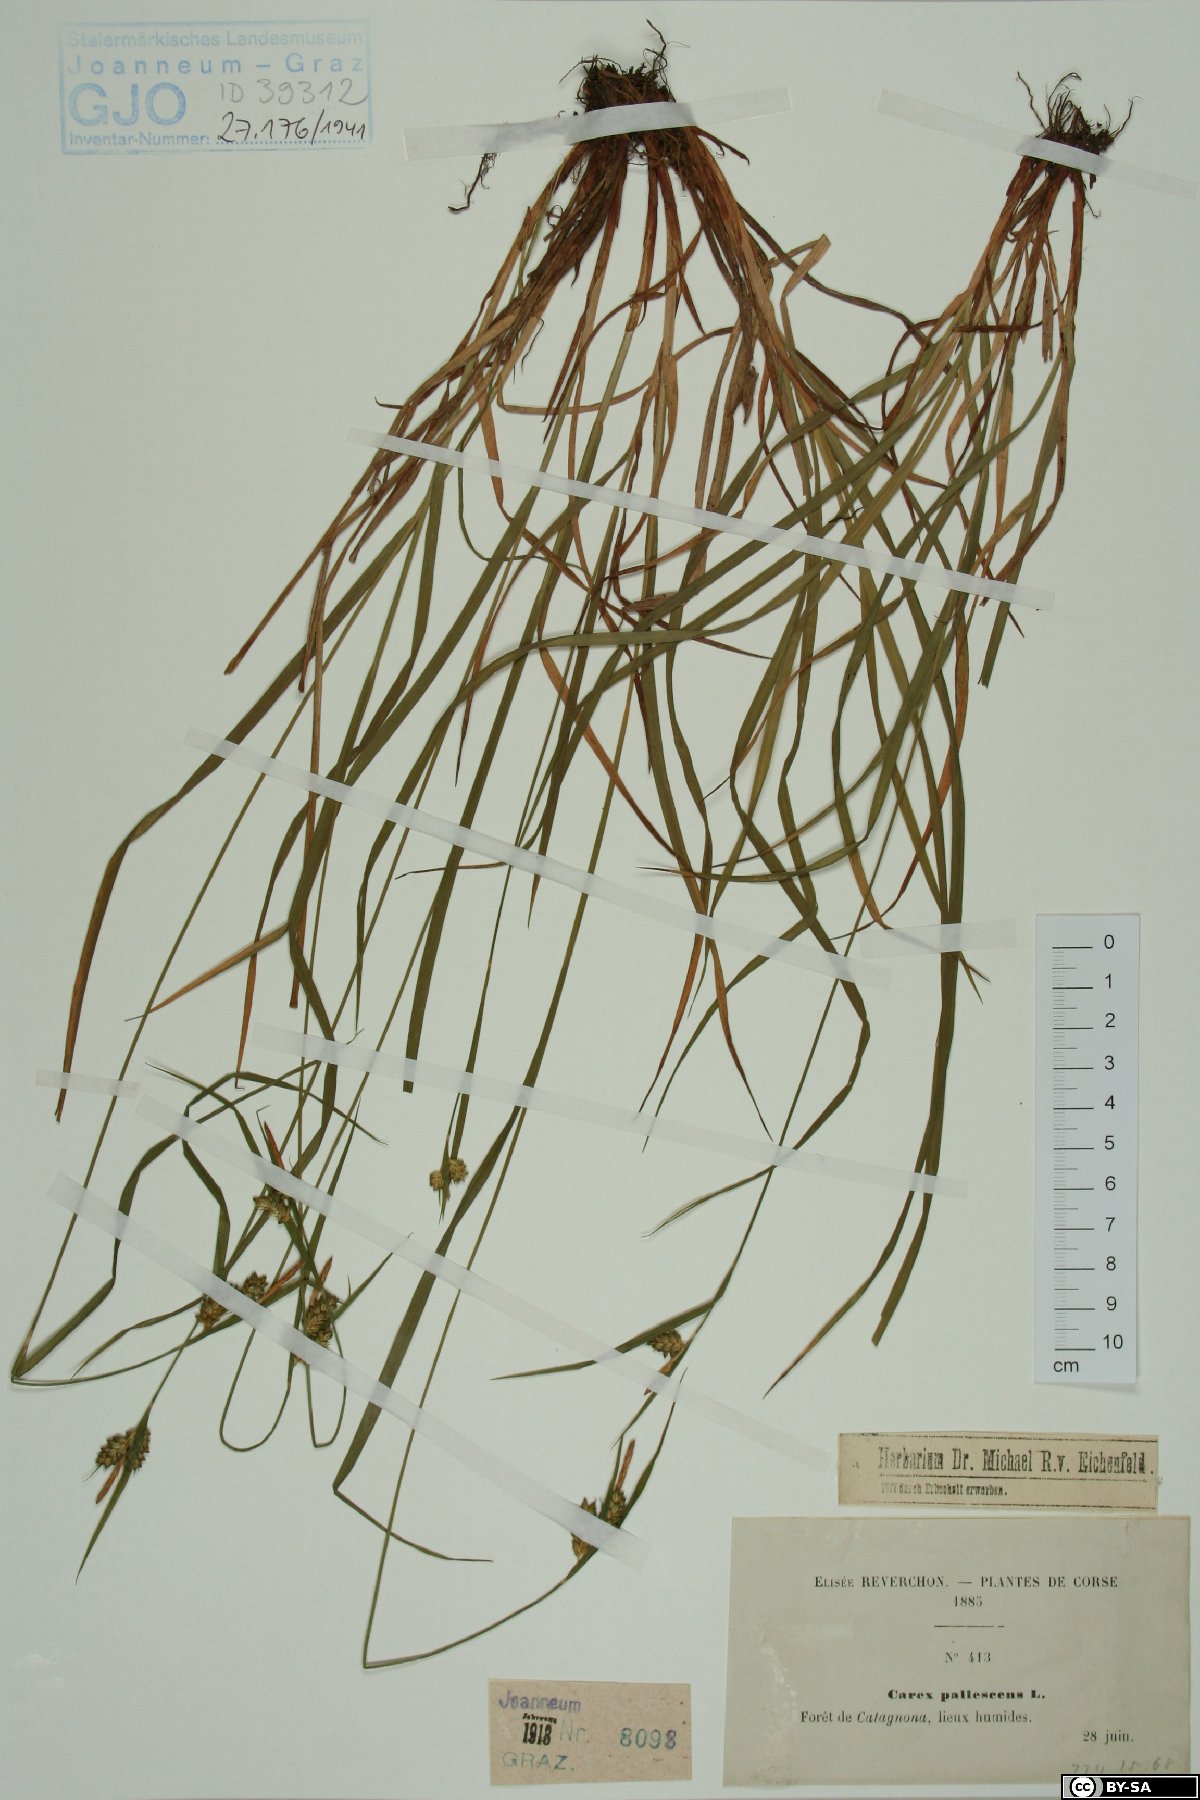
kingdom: Plantae
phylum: Tracheophyta
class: Liliopsida
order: Poales
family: Cyperaceae
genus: Carex
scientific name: Carex pallescens
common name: Pale sedge
